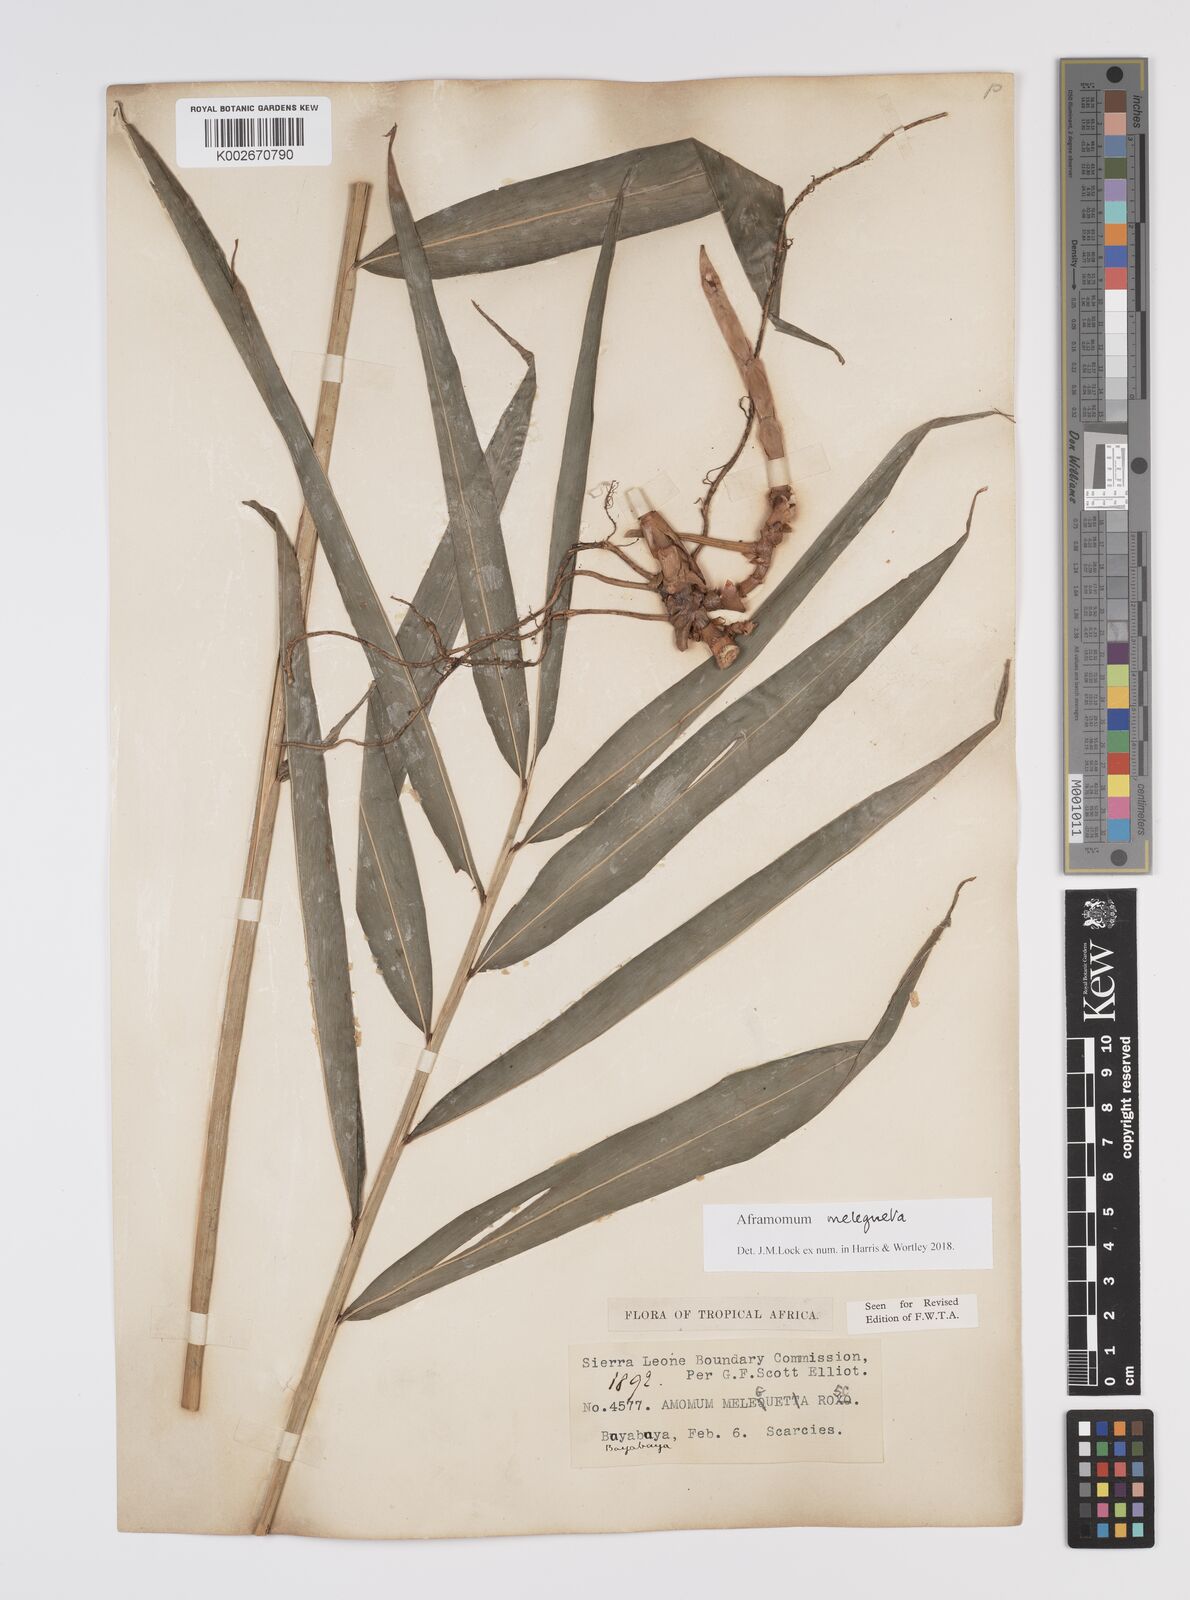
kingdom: Plantae
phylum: Tracheophyta
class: Liliopsida
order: Zingiberales
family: Zingiberaceae
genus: Aframomum
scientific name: Aframomum melegueta
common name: Grains of paradise
